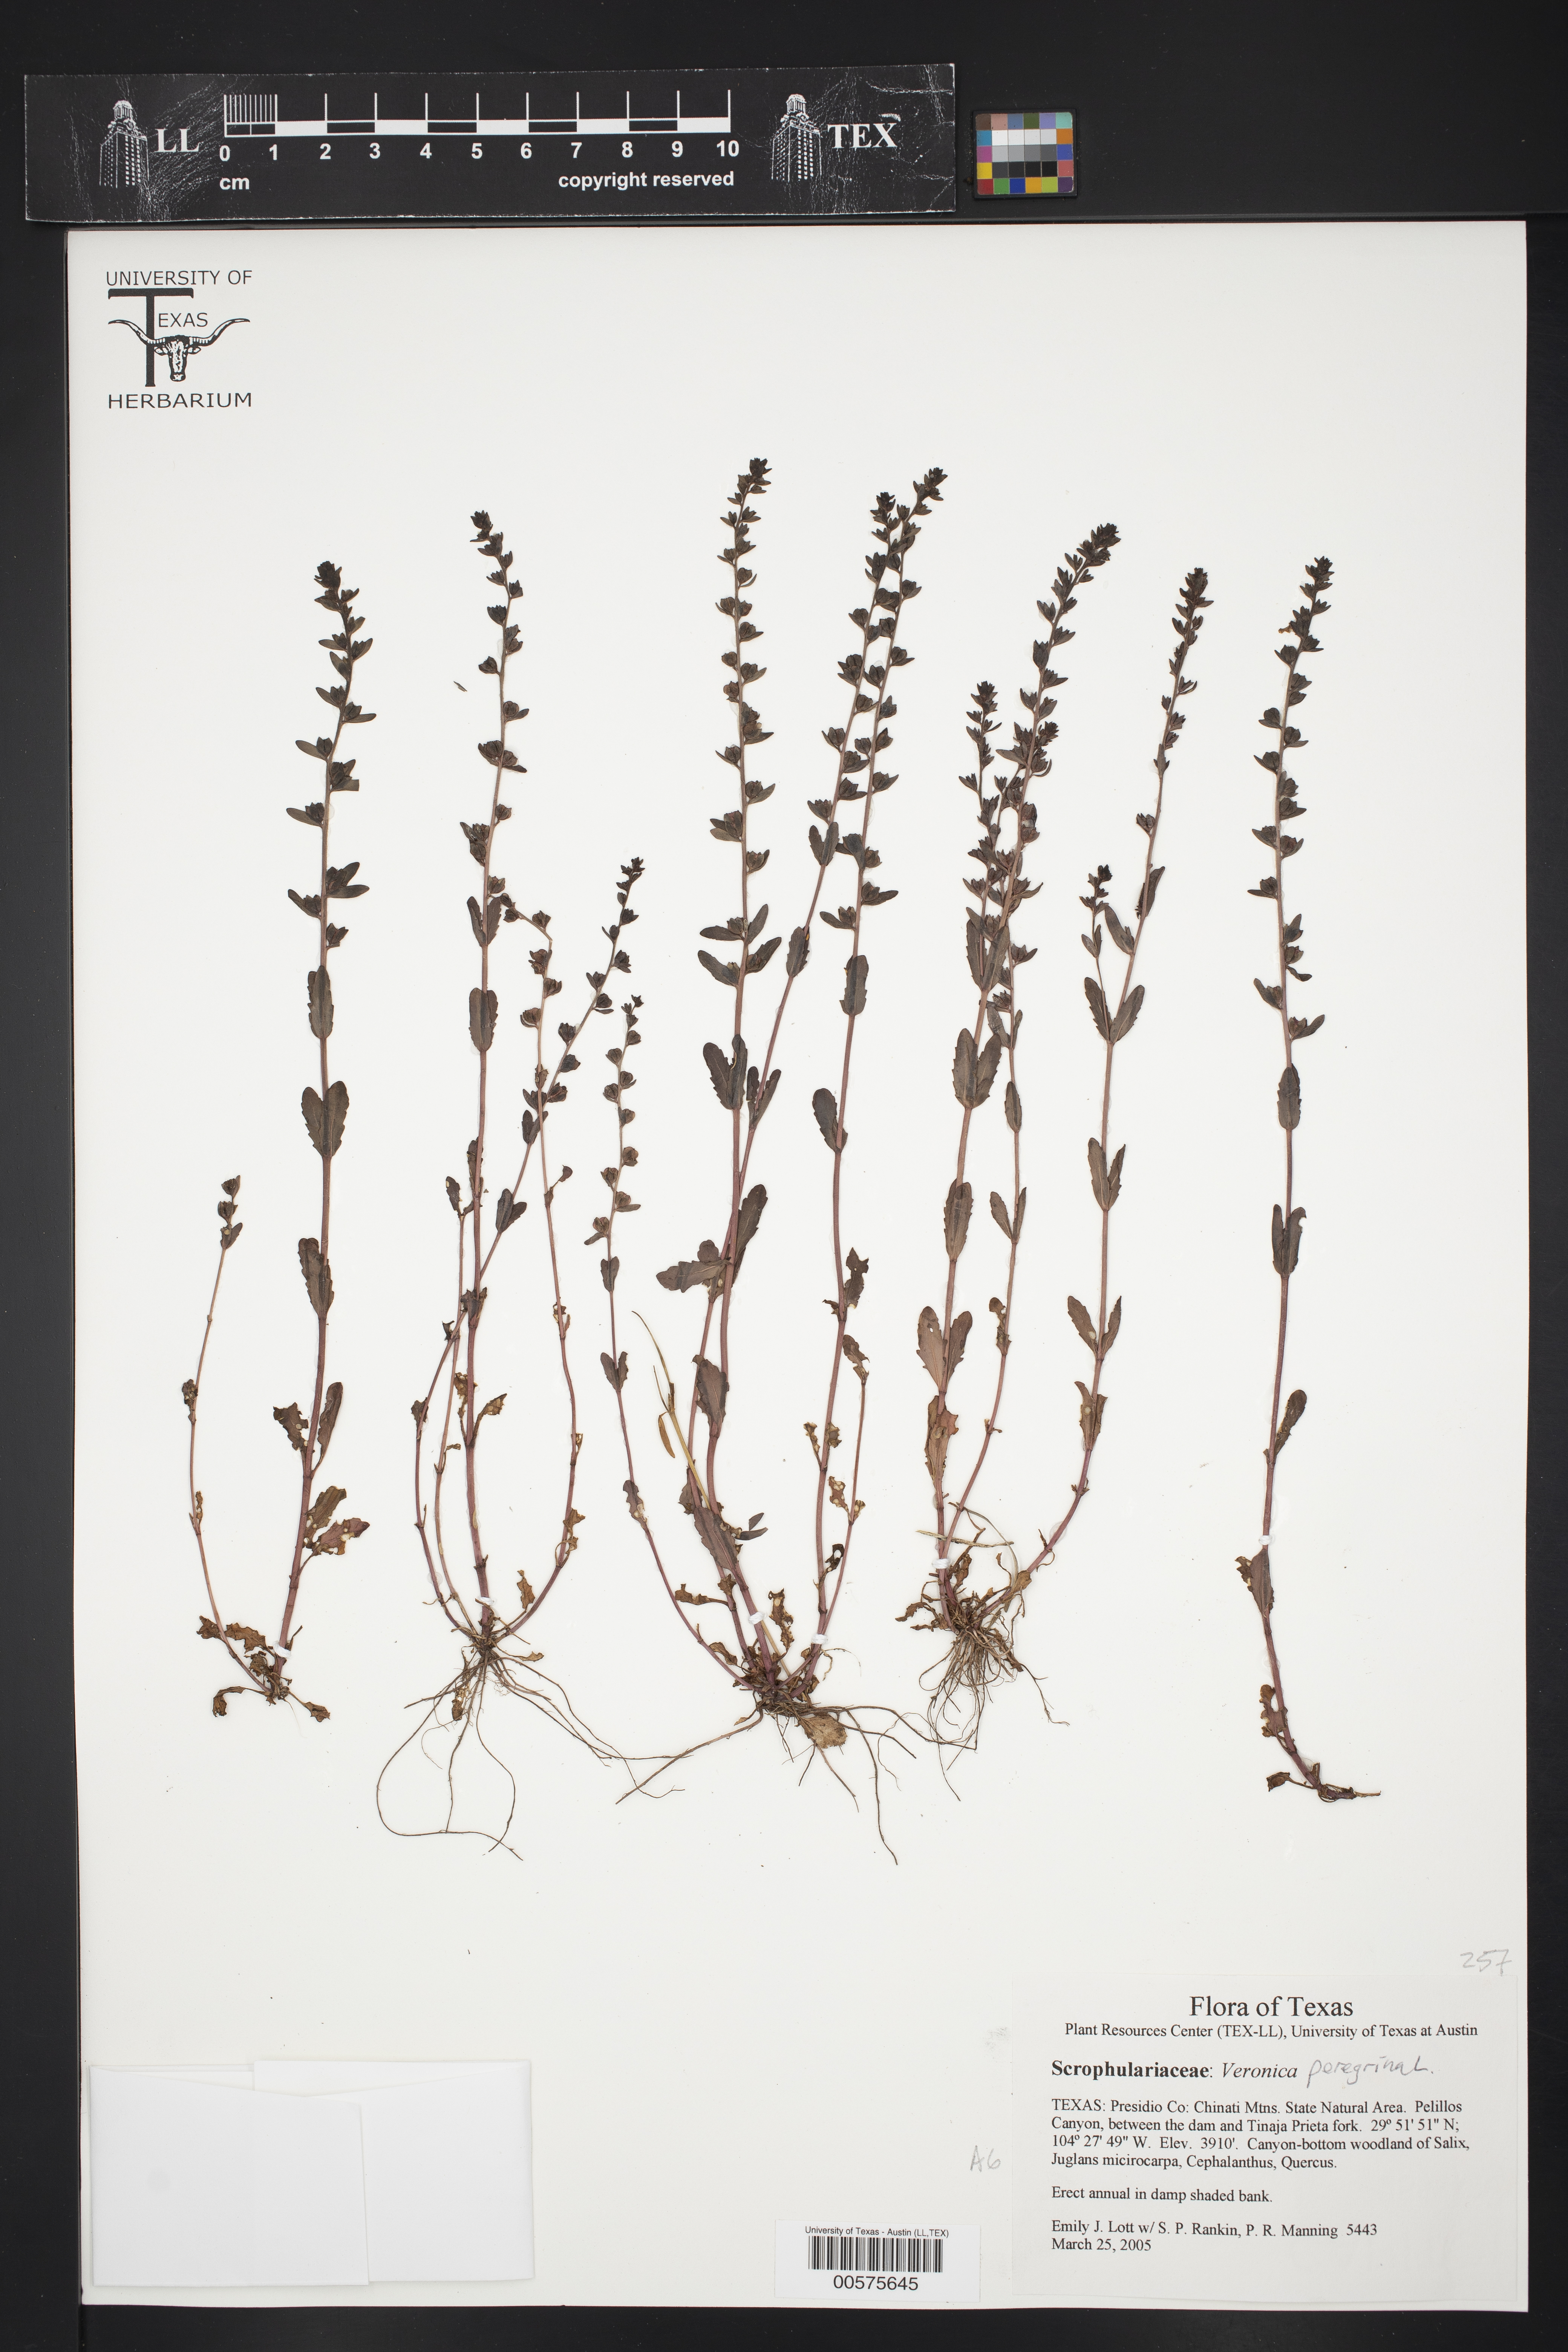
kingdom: Plantae
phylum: Tracheophyta
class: Magnoliopsida
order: Lamiales
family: Plantaginaceae
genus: Veronica
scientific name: Veronica peregrina
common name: Neckweed
